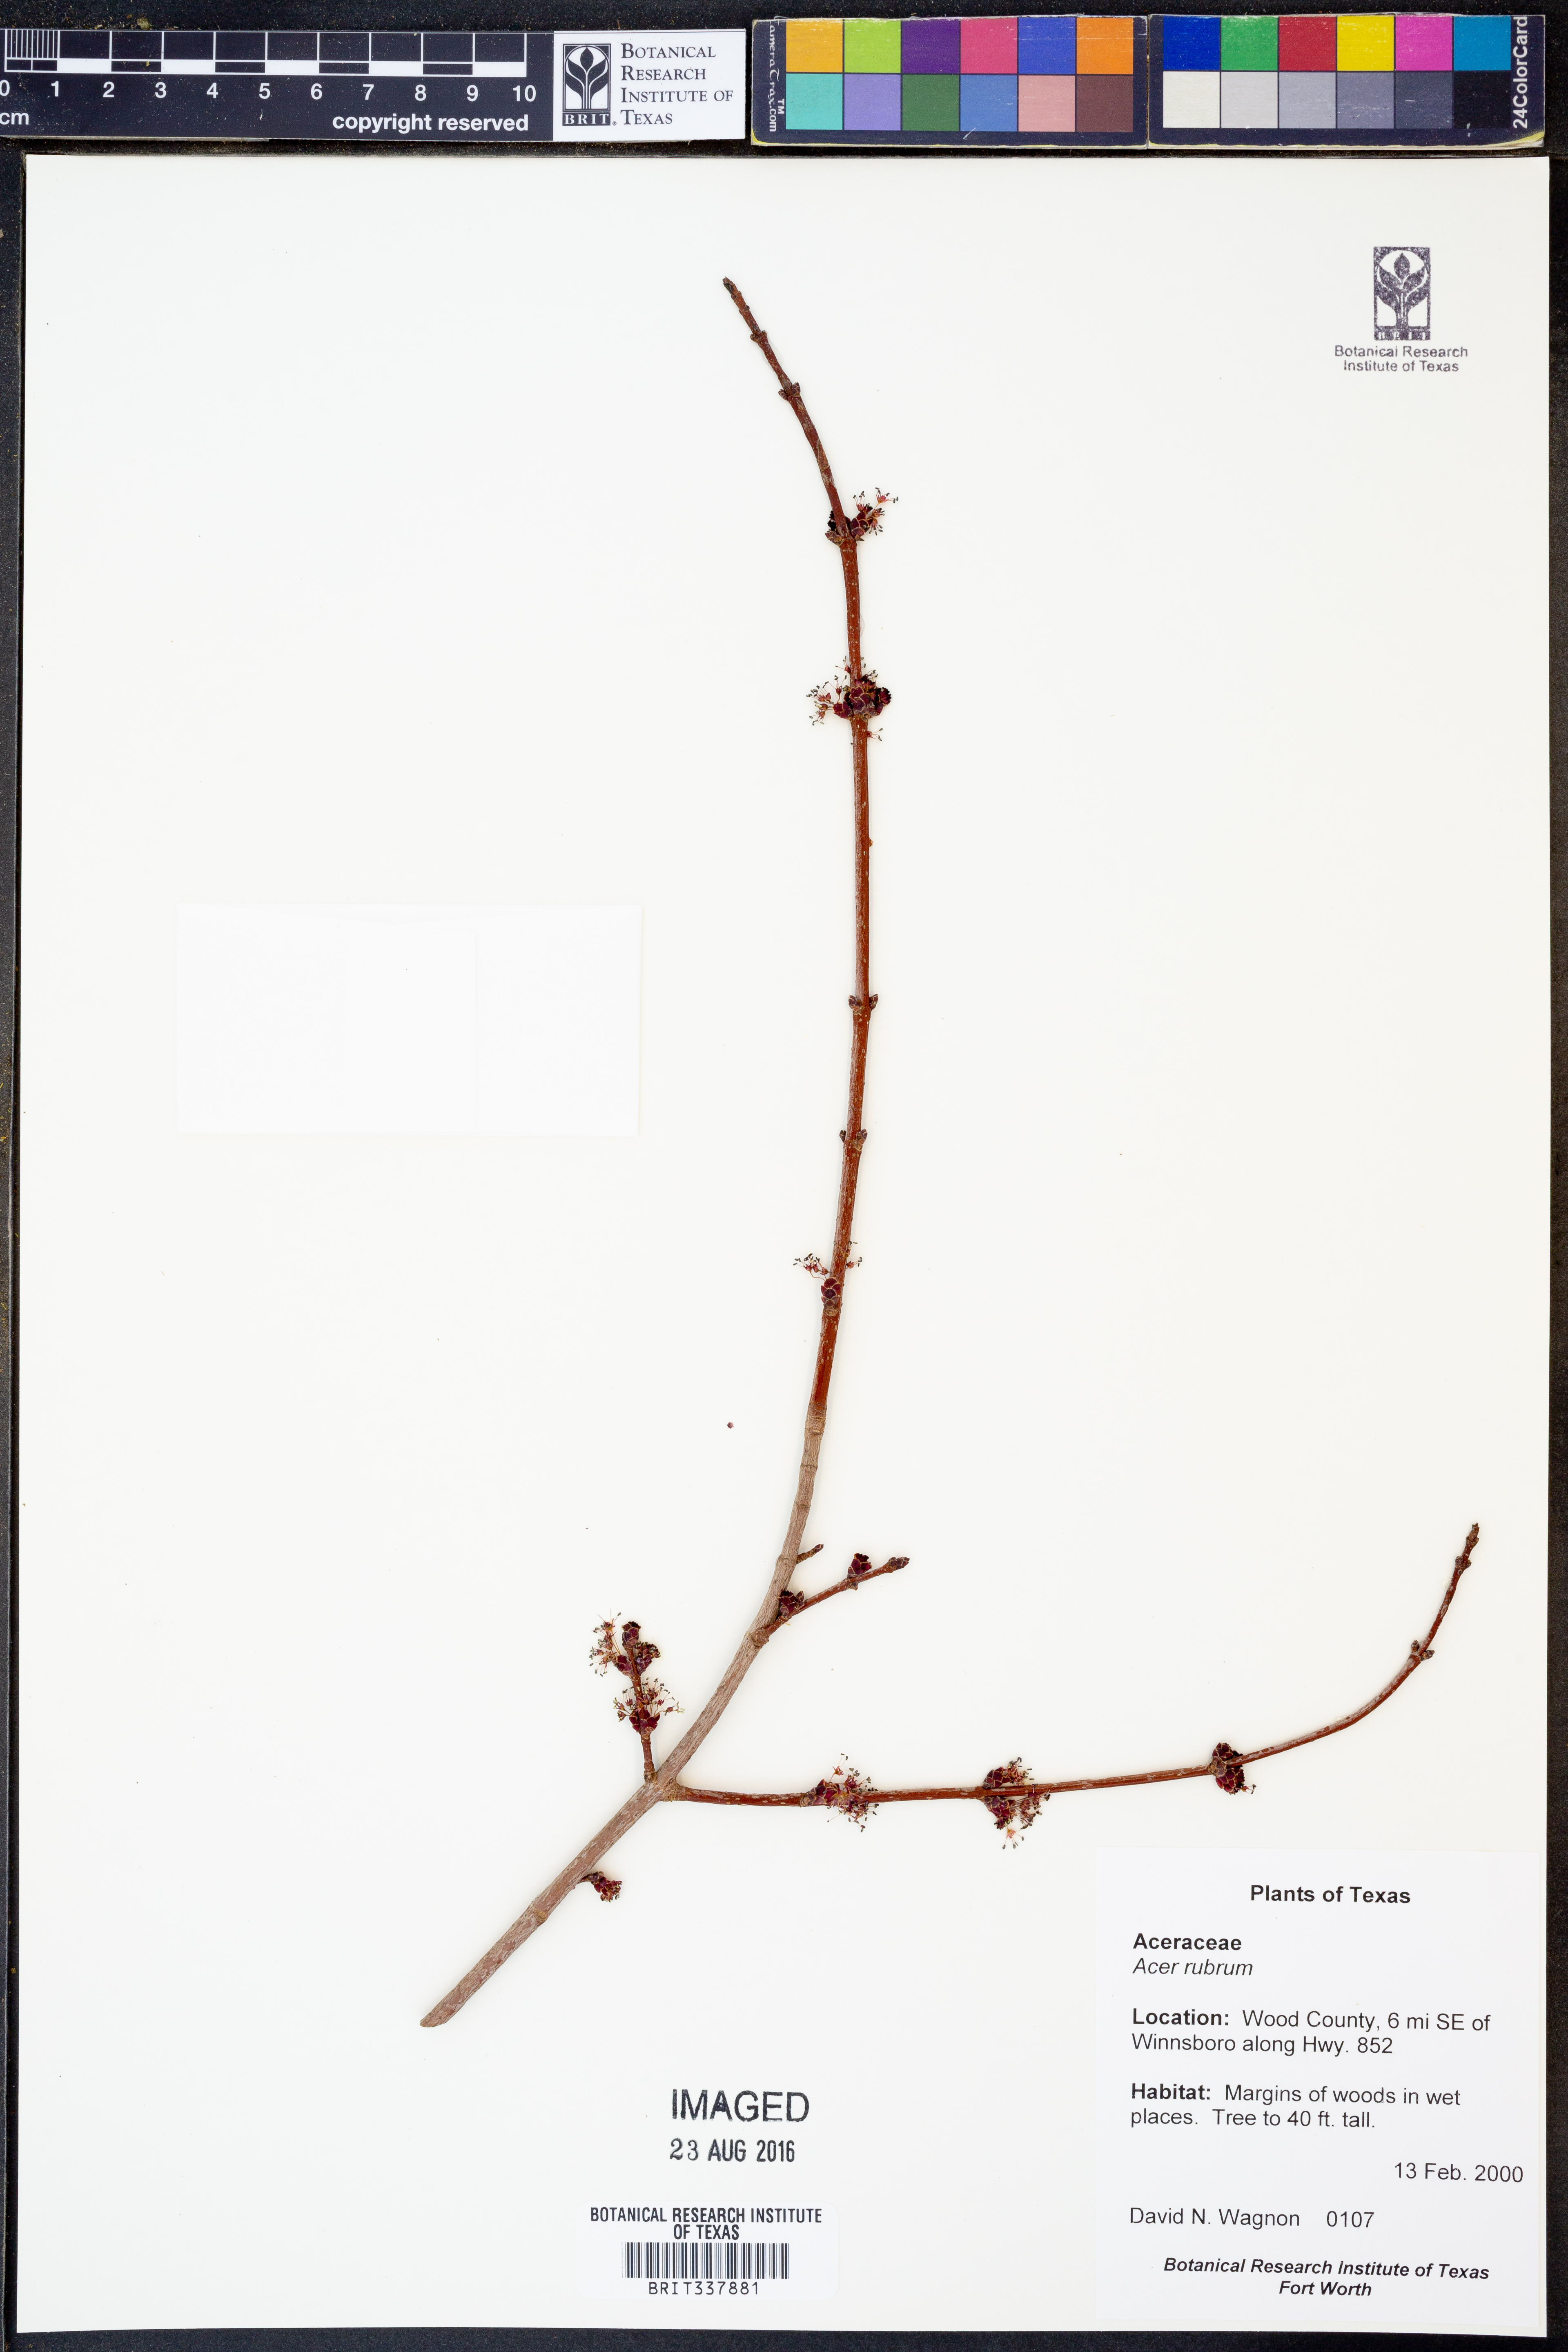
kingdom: Plantae
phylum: Tracheophyta
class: Magnoliopsida
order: Sapindales
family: Sapindaceae
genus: Acer
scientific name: Acer rubrum
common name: Red maple
